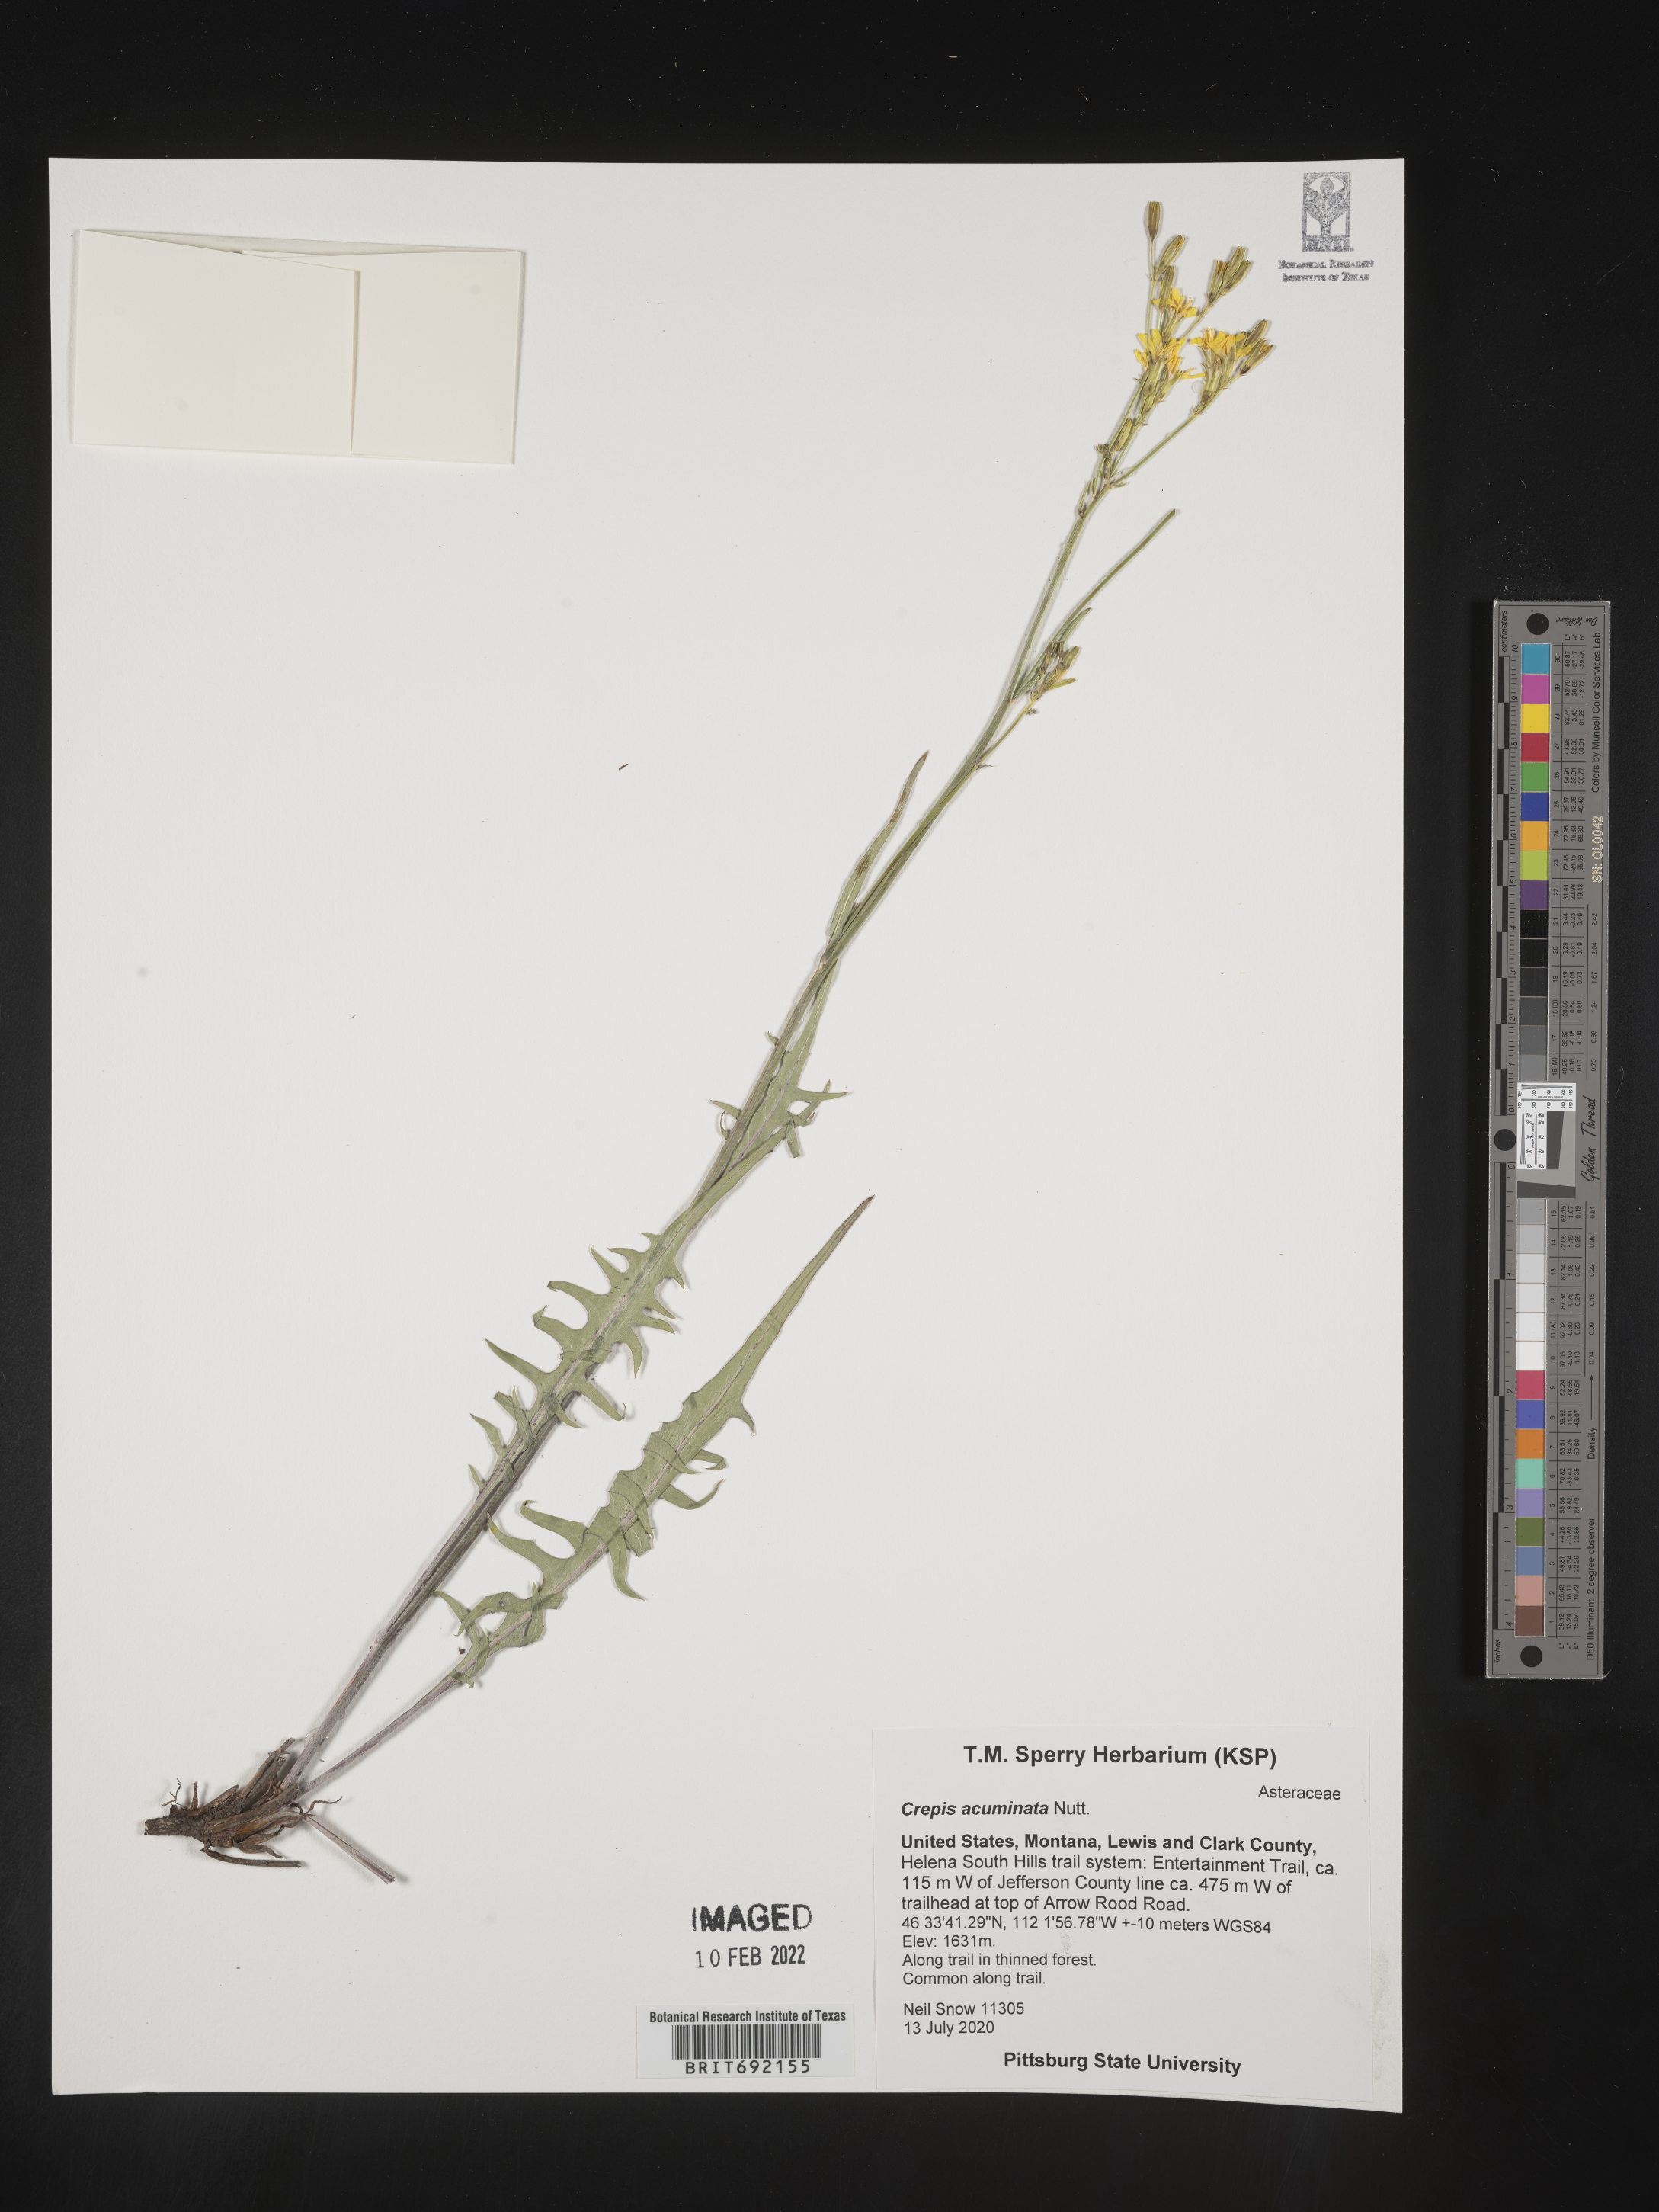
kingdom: Plantae
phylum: Tracheophyta
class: Magnoliopsida
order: Asterales
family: Asteraceae
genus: Crepis
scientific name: Crepis acuminata
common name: Longleaf hawk's-beard
